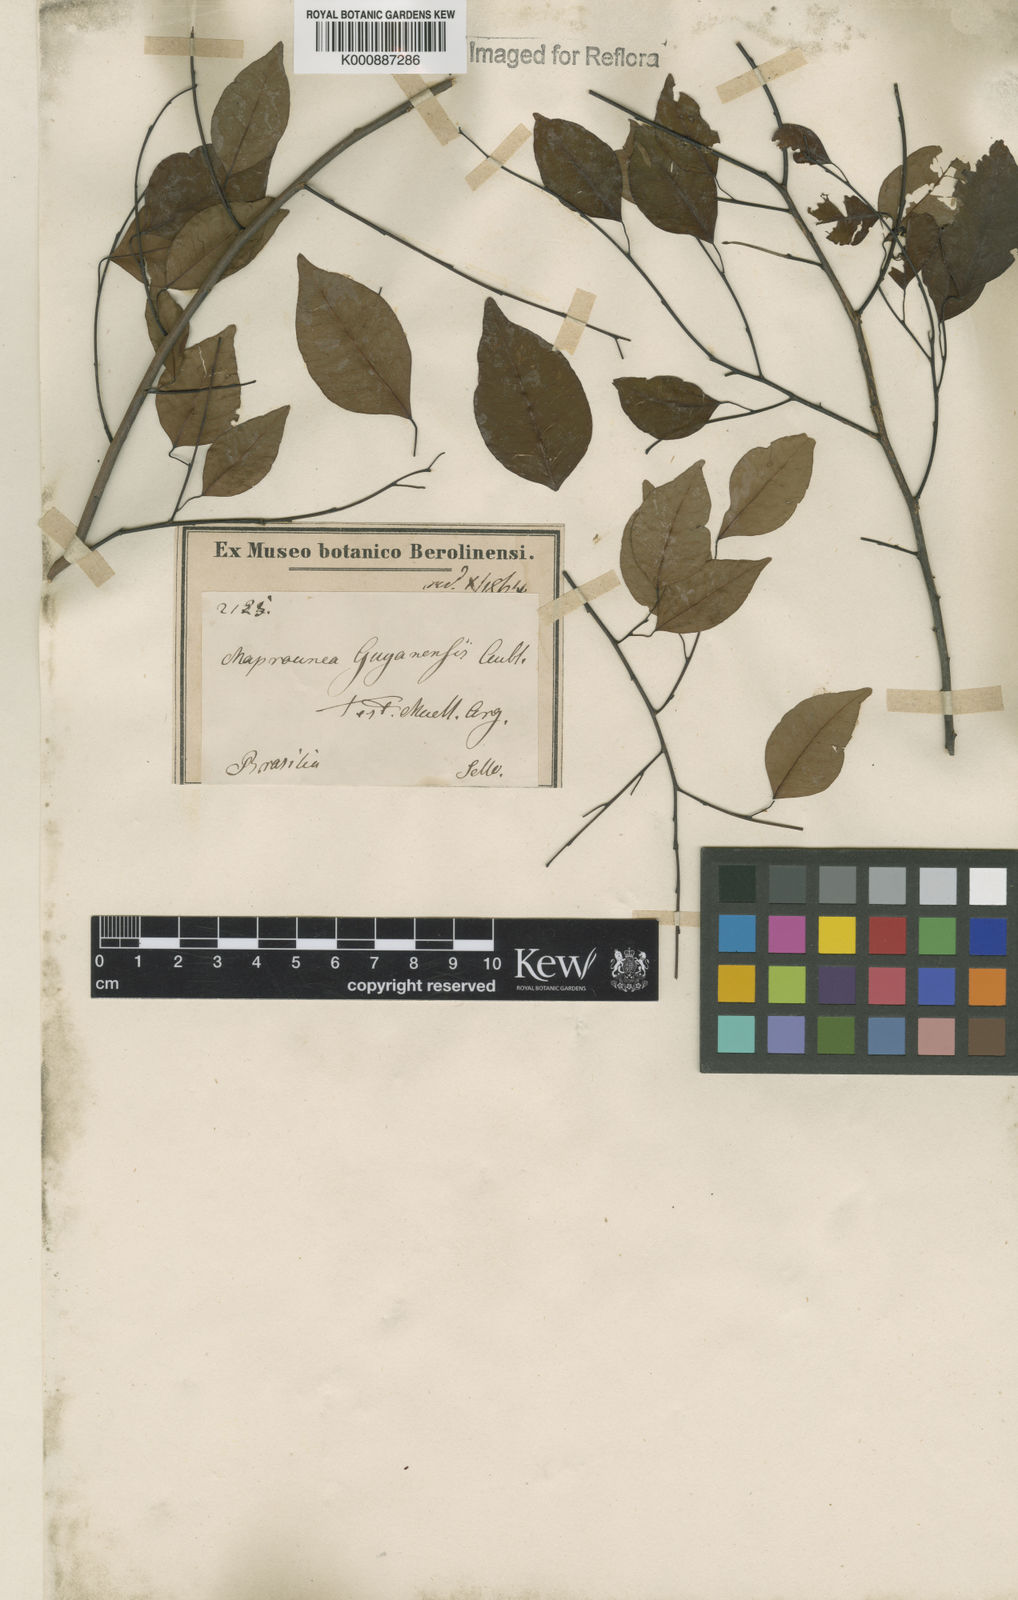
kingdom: Plantae
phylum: Tracheophyta
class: Magnoliopsida
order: Malpighiales
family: Euphorbiaceae
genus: Maprounea
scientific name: Maprounea guianensis
